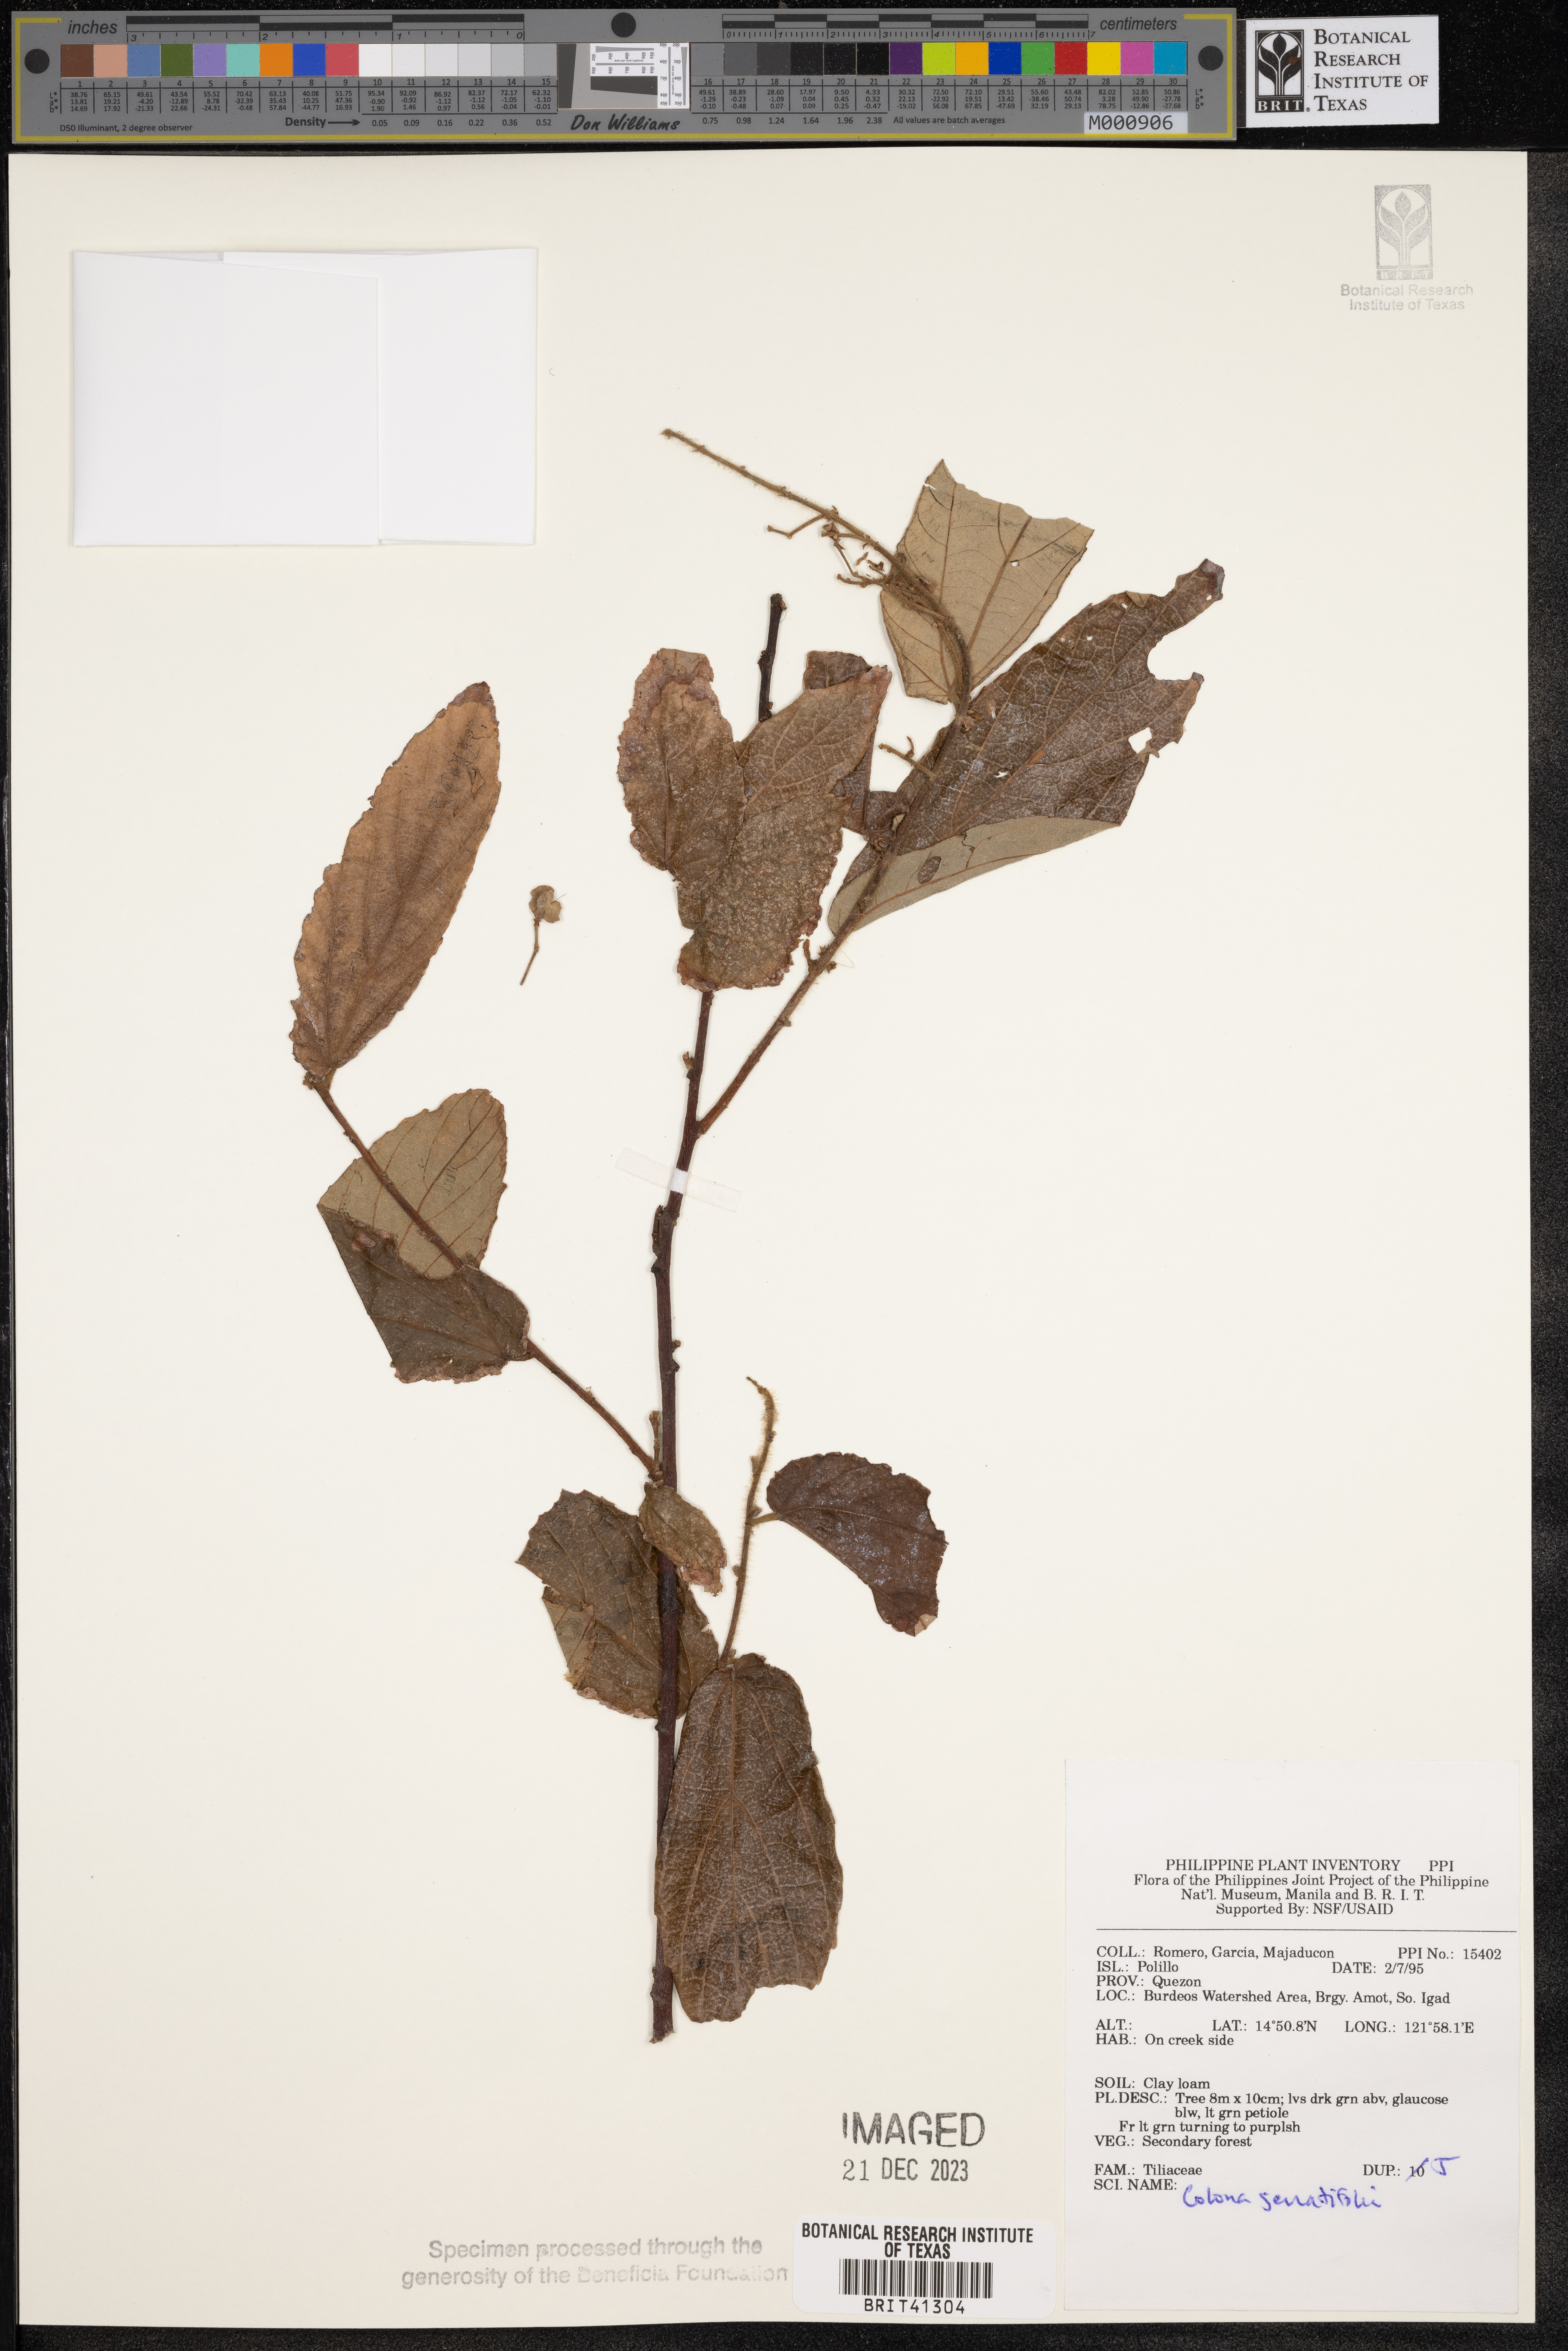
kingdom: Plantae
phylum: Tracheophyta
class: Magnoliopsida
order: Malvales
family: Malvaceae
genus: Colona
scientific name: Colona serratifolia
